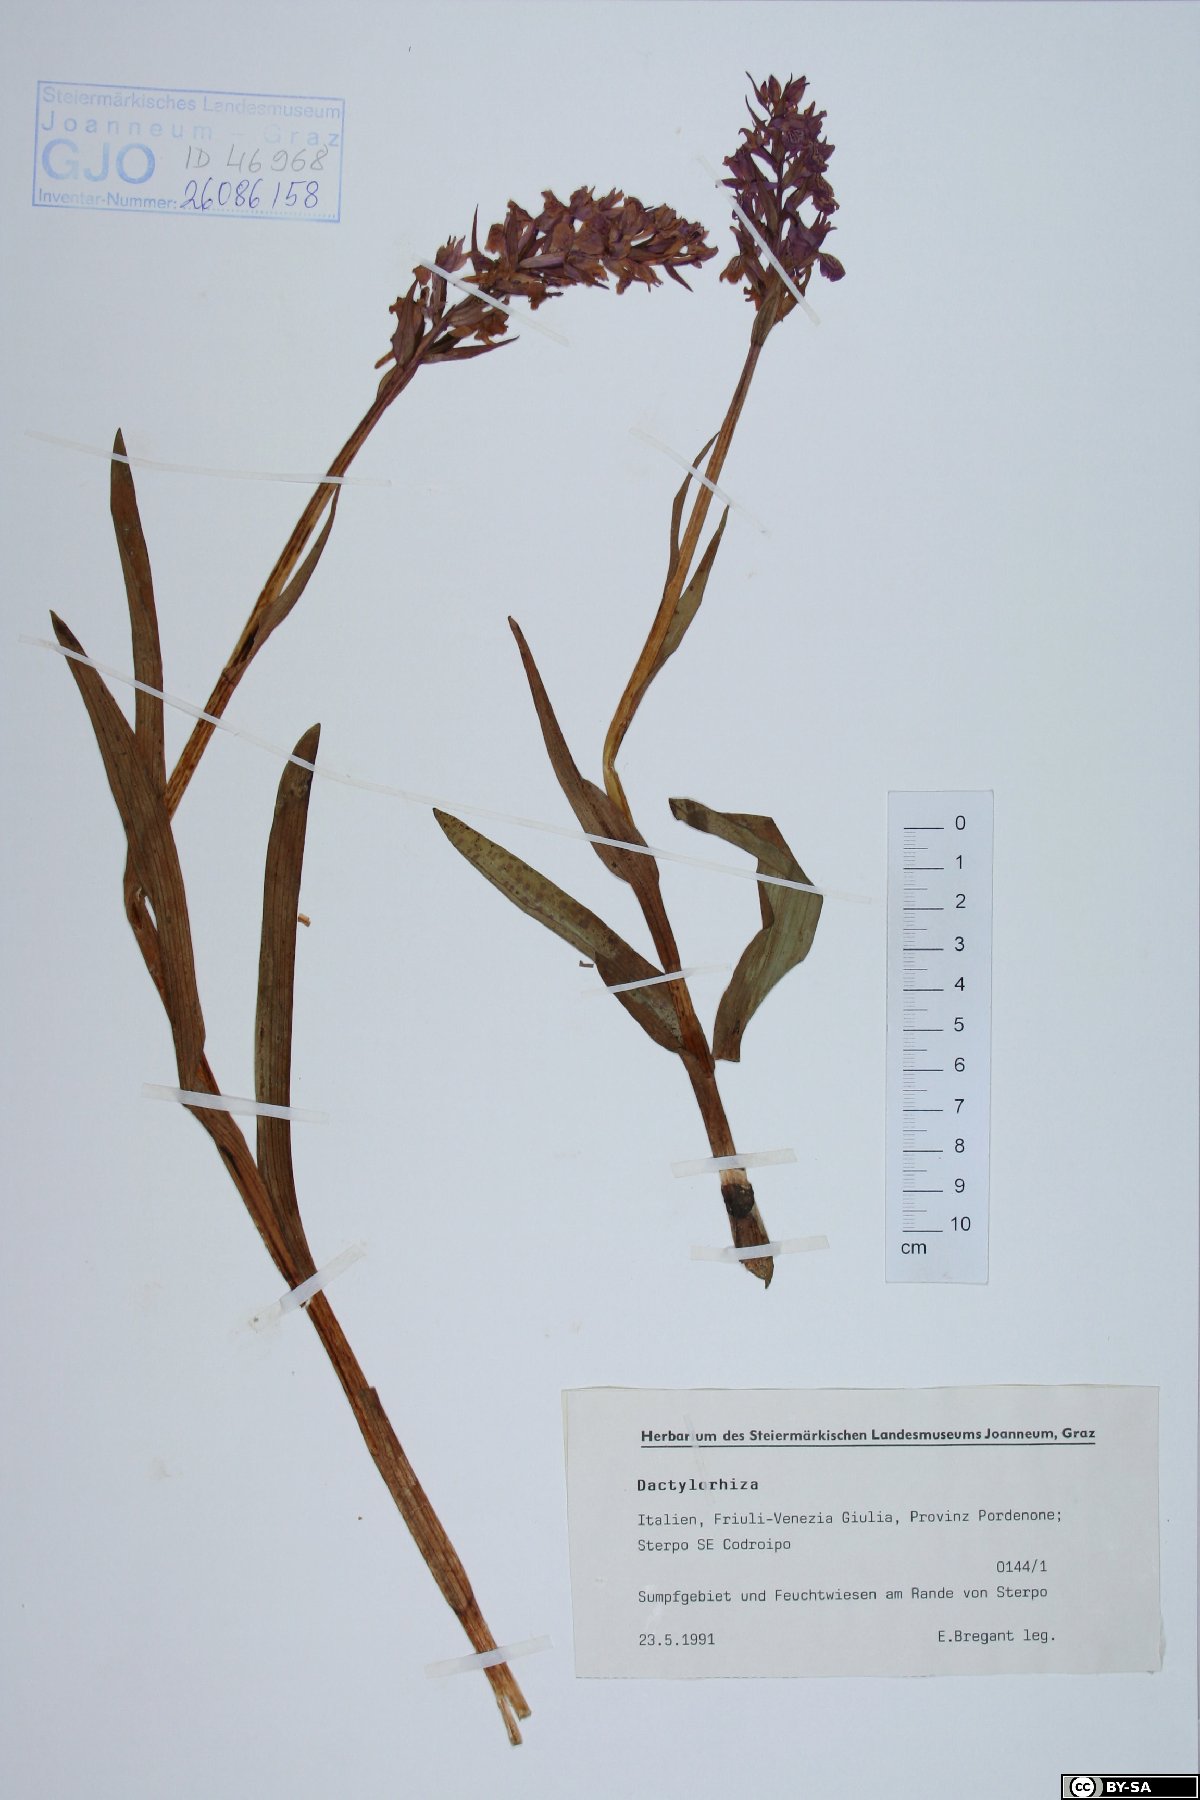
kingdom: Plantae
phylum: Tracheophyta
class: Liliopsida
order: Asparagales
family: Orchidaceae
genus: Dactylorhiza
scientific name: Dactylorhiza
